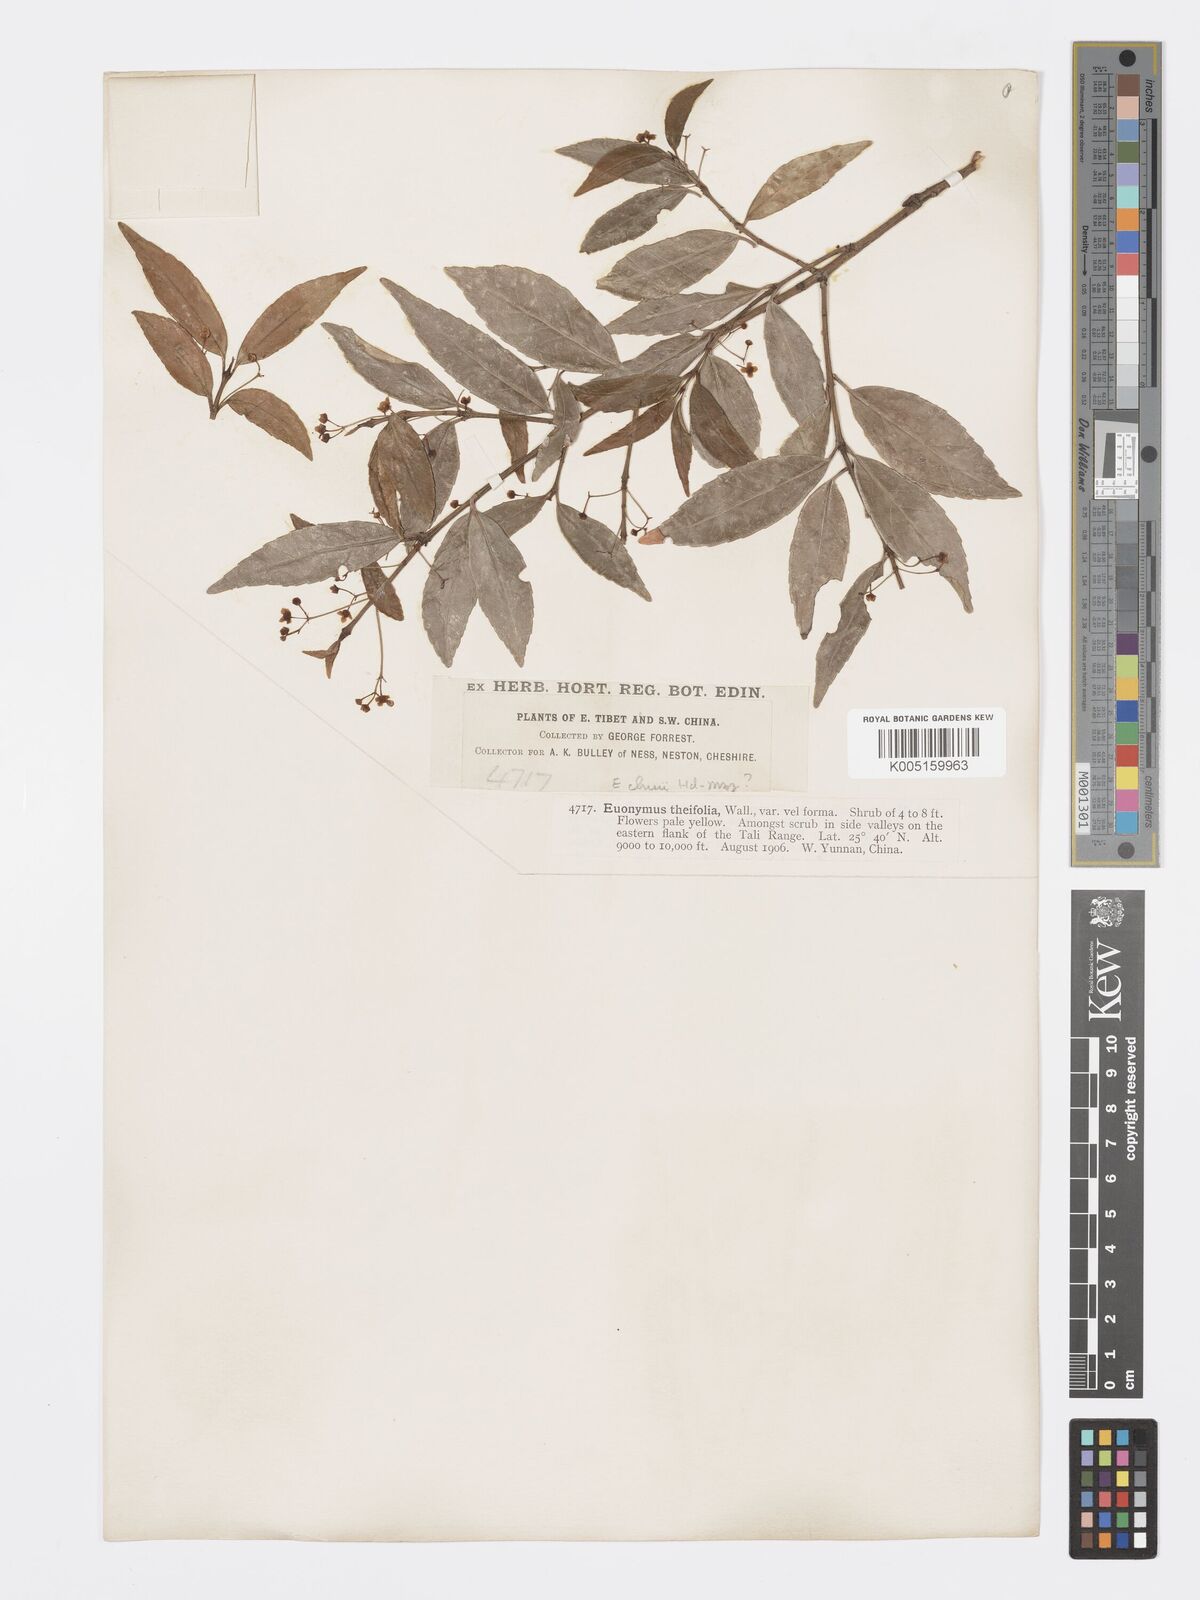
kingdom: Plantae
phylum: Tracheophyta
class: Magnoliopsida
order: Celastrales
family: Celastraceae
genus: Euonymus
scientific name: Euonymus chui
